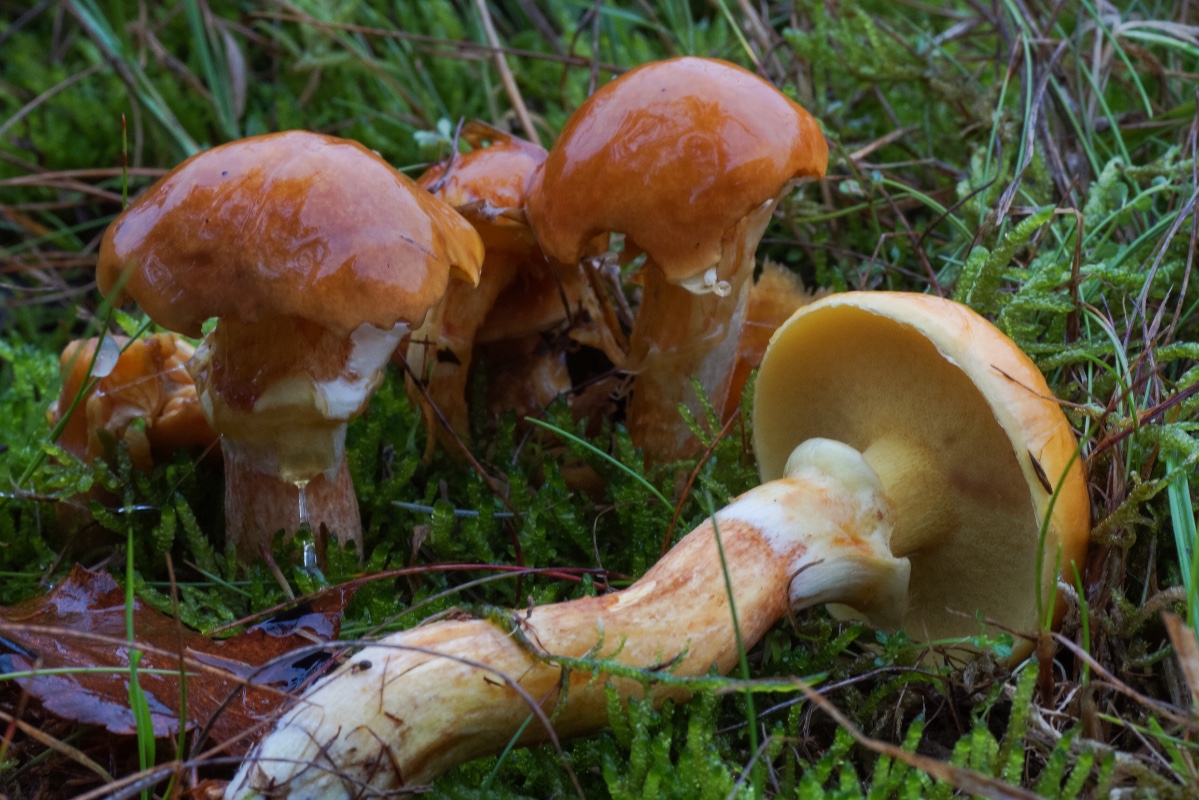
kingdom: Fungi
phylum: Basidiomycota
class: Agaricomycetes
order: Boletales
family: Suillaceae
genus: Suillus
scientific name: Suillus grevillei
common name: lærke-slimrørhat
